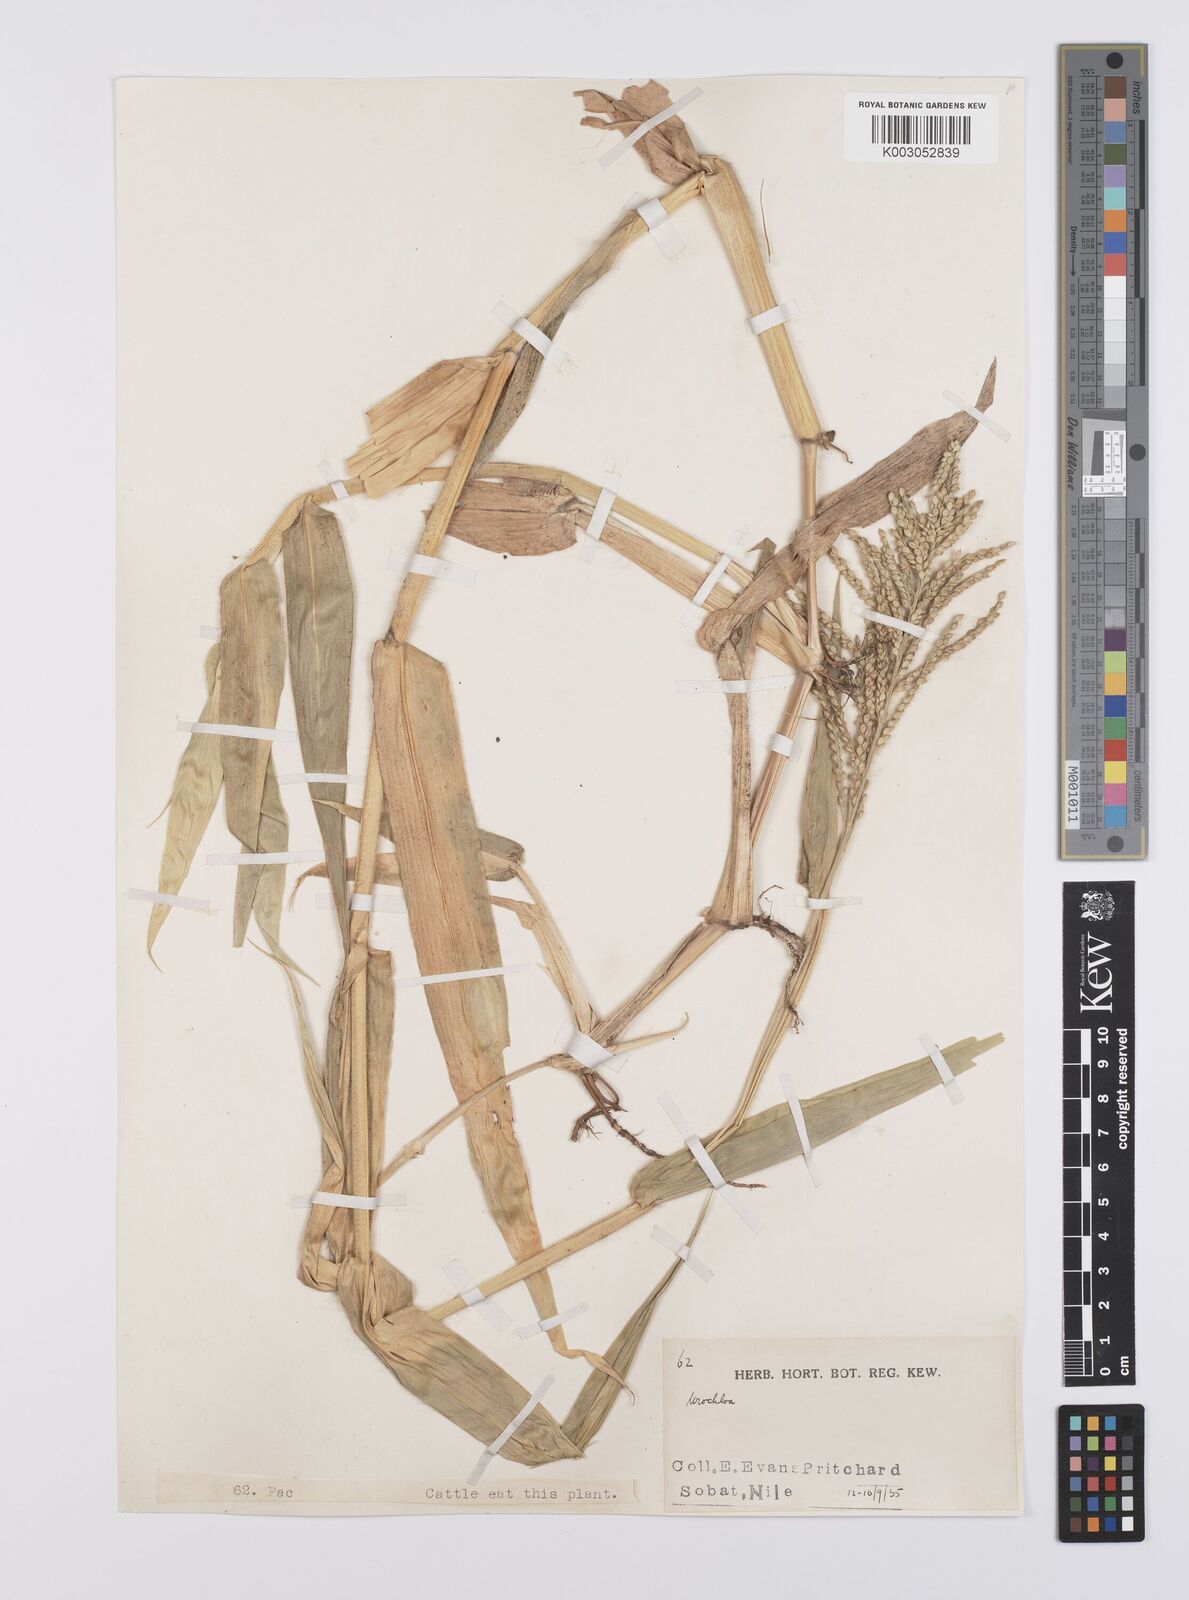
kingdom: Plantae
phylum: Tracheophyta
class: Liliopsida
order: Poales
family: Poaceae
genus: Urochloa
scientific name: Urochloa lata
